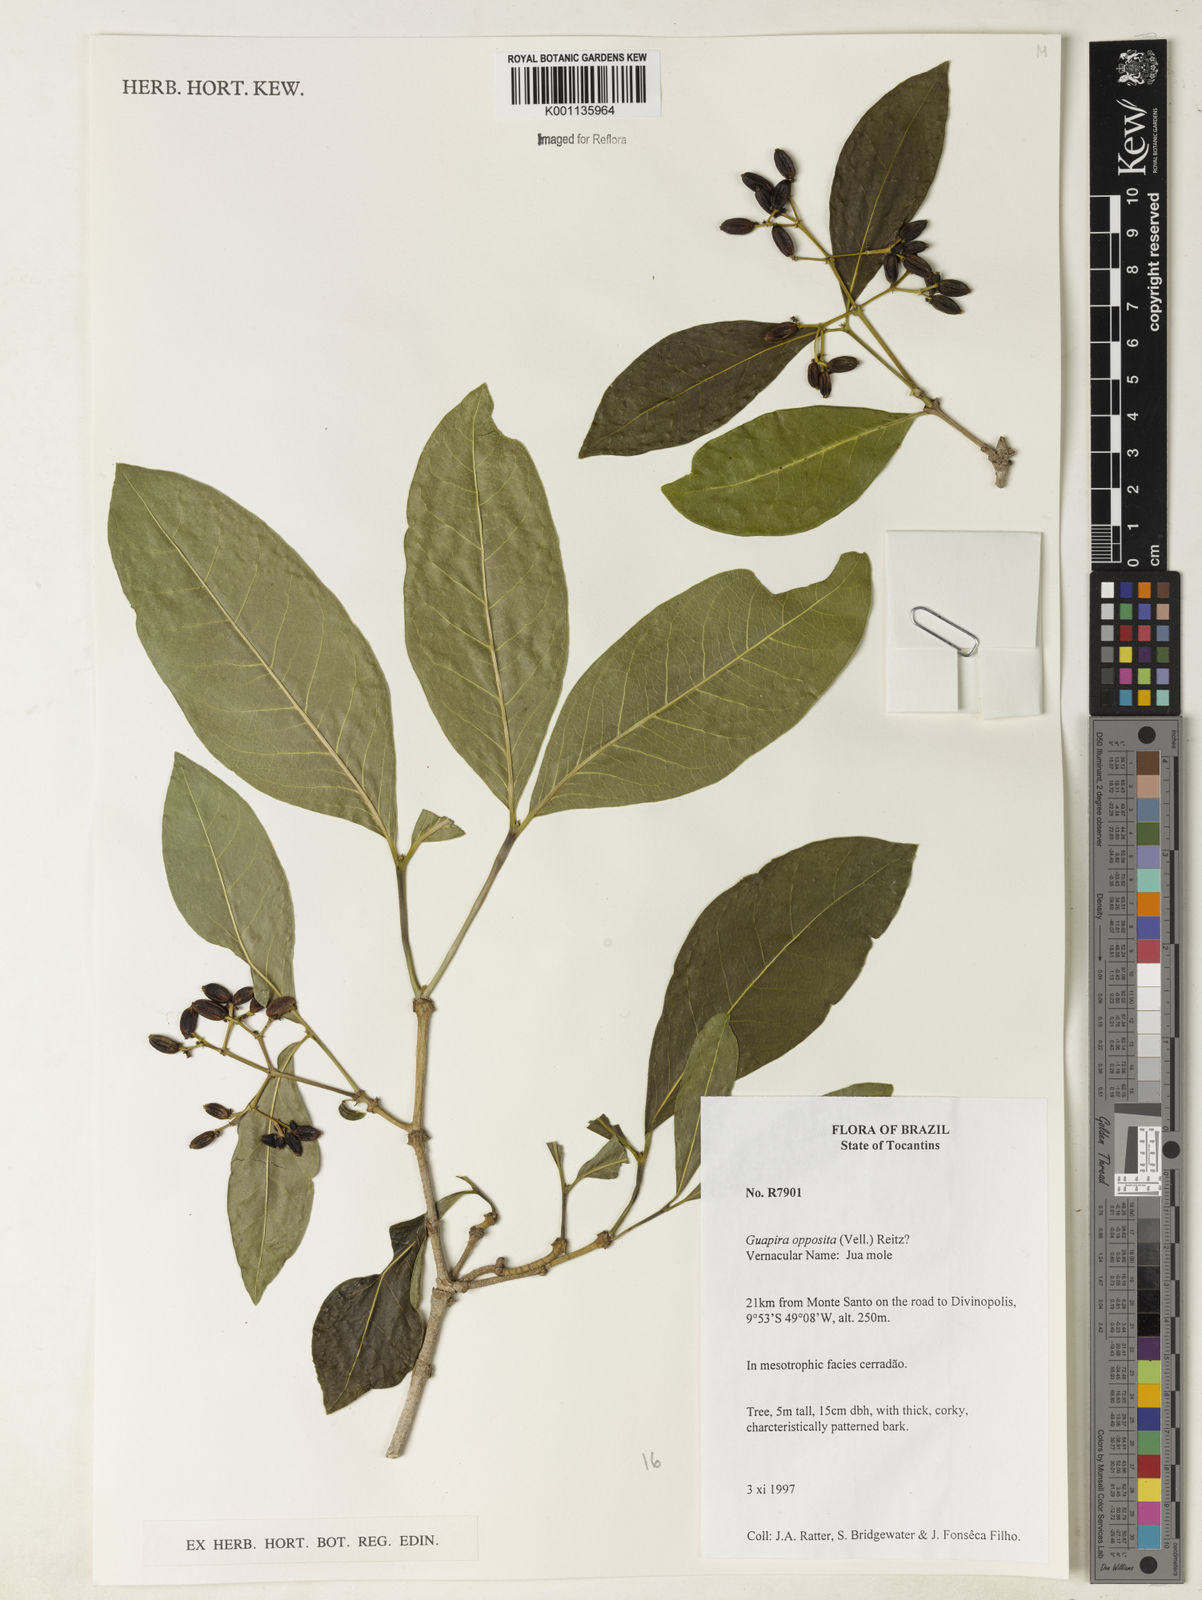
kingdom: Plantae
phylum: Tracheophyta
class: Magnoliopsida
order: Caryophyllales
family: Nyctaginaceae
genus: Guapira
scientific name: Guapira opposita
